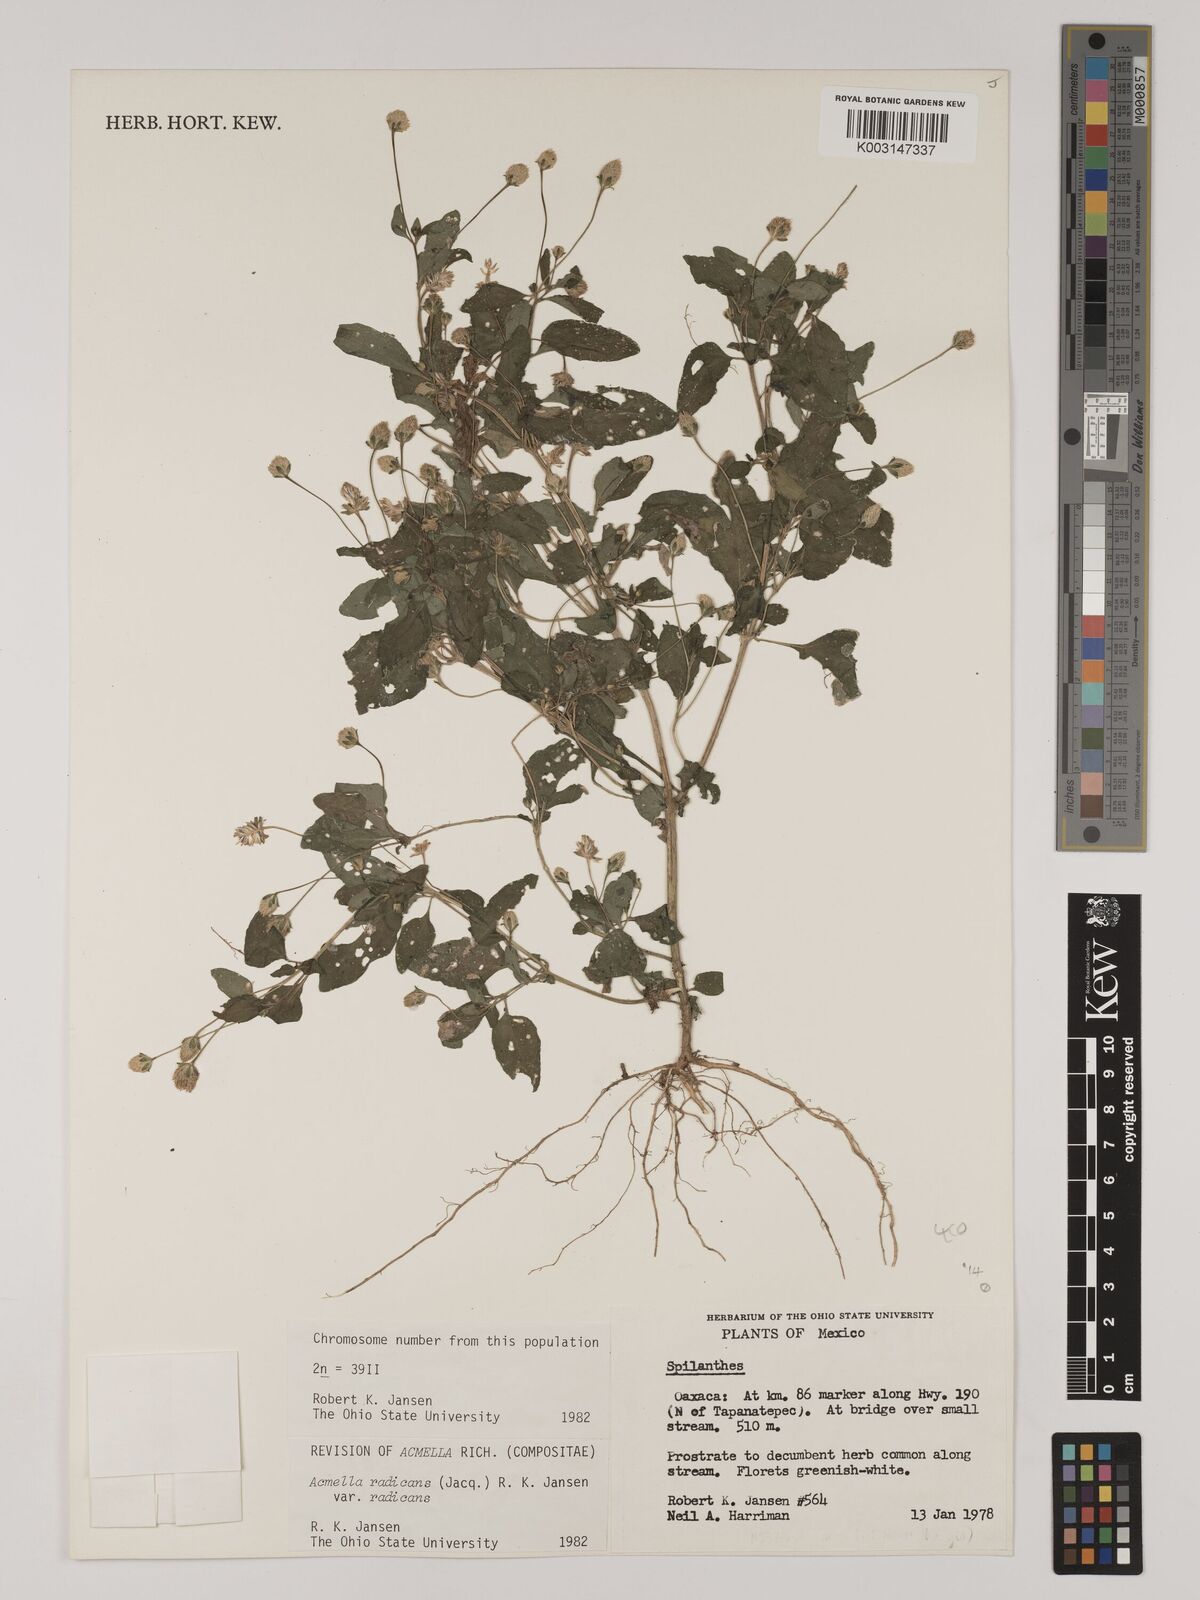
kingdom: Plantae
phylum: Tracheophyta
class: Magnoliopsida
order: Asterales
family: Asteraceae
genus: Acmella
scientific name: Acmella radicans
